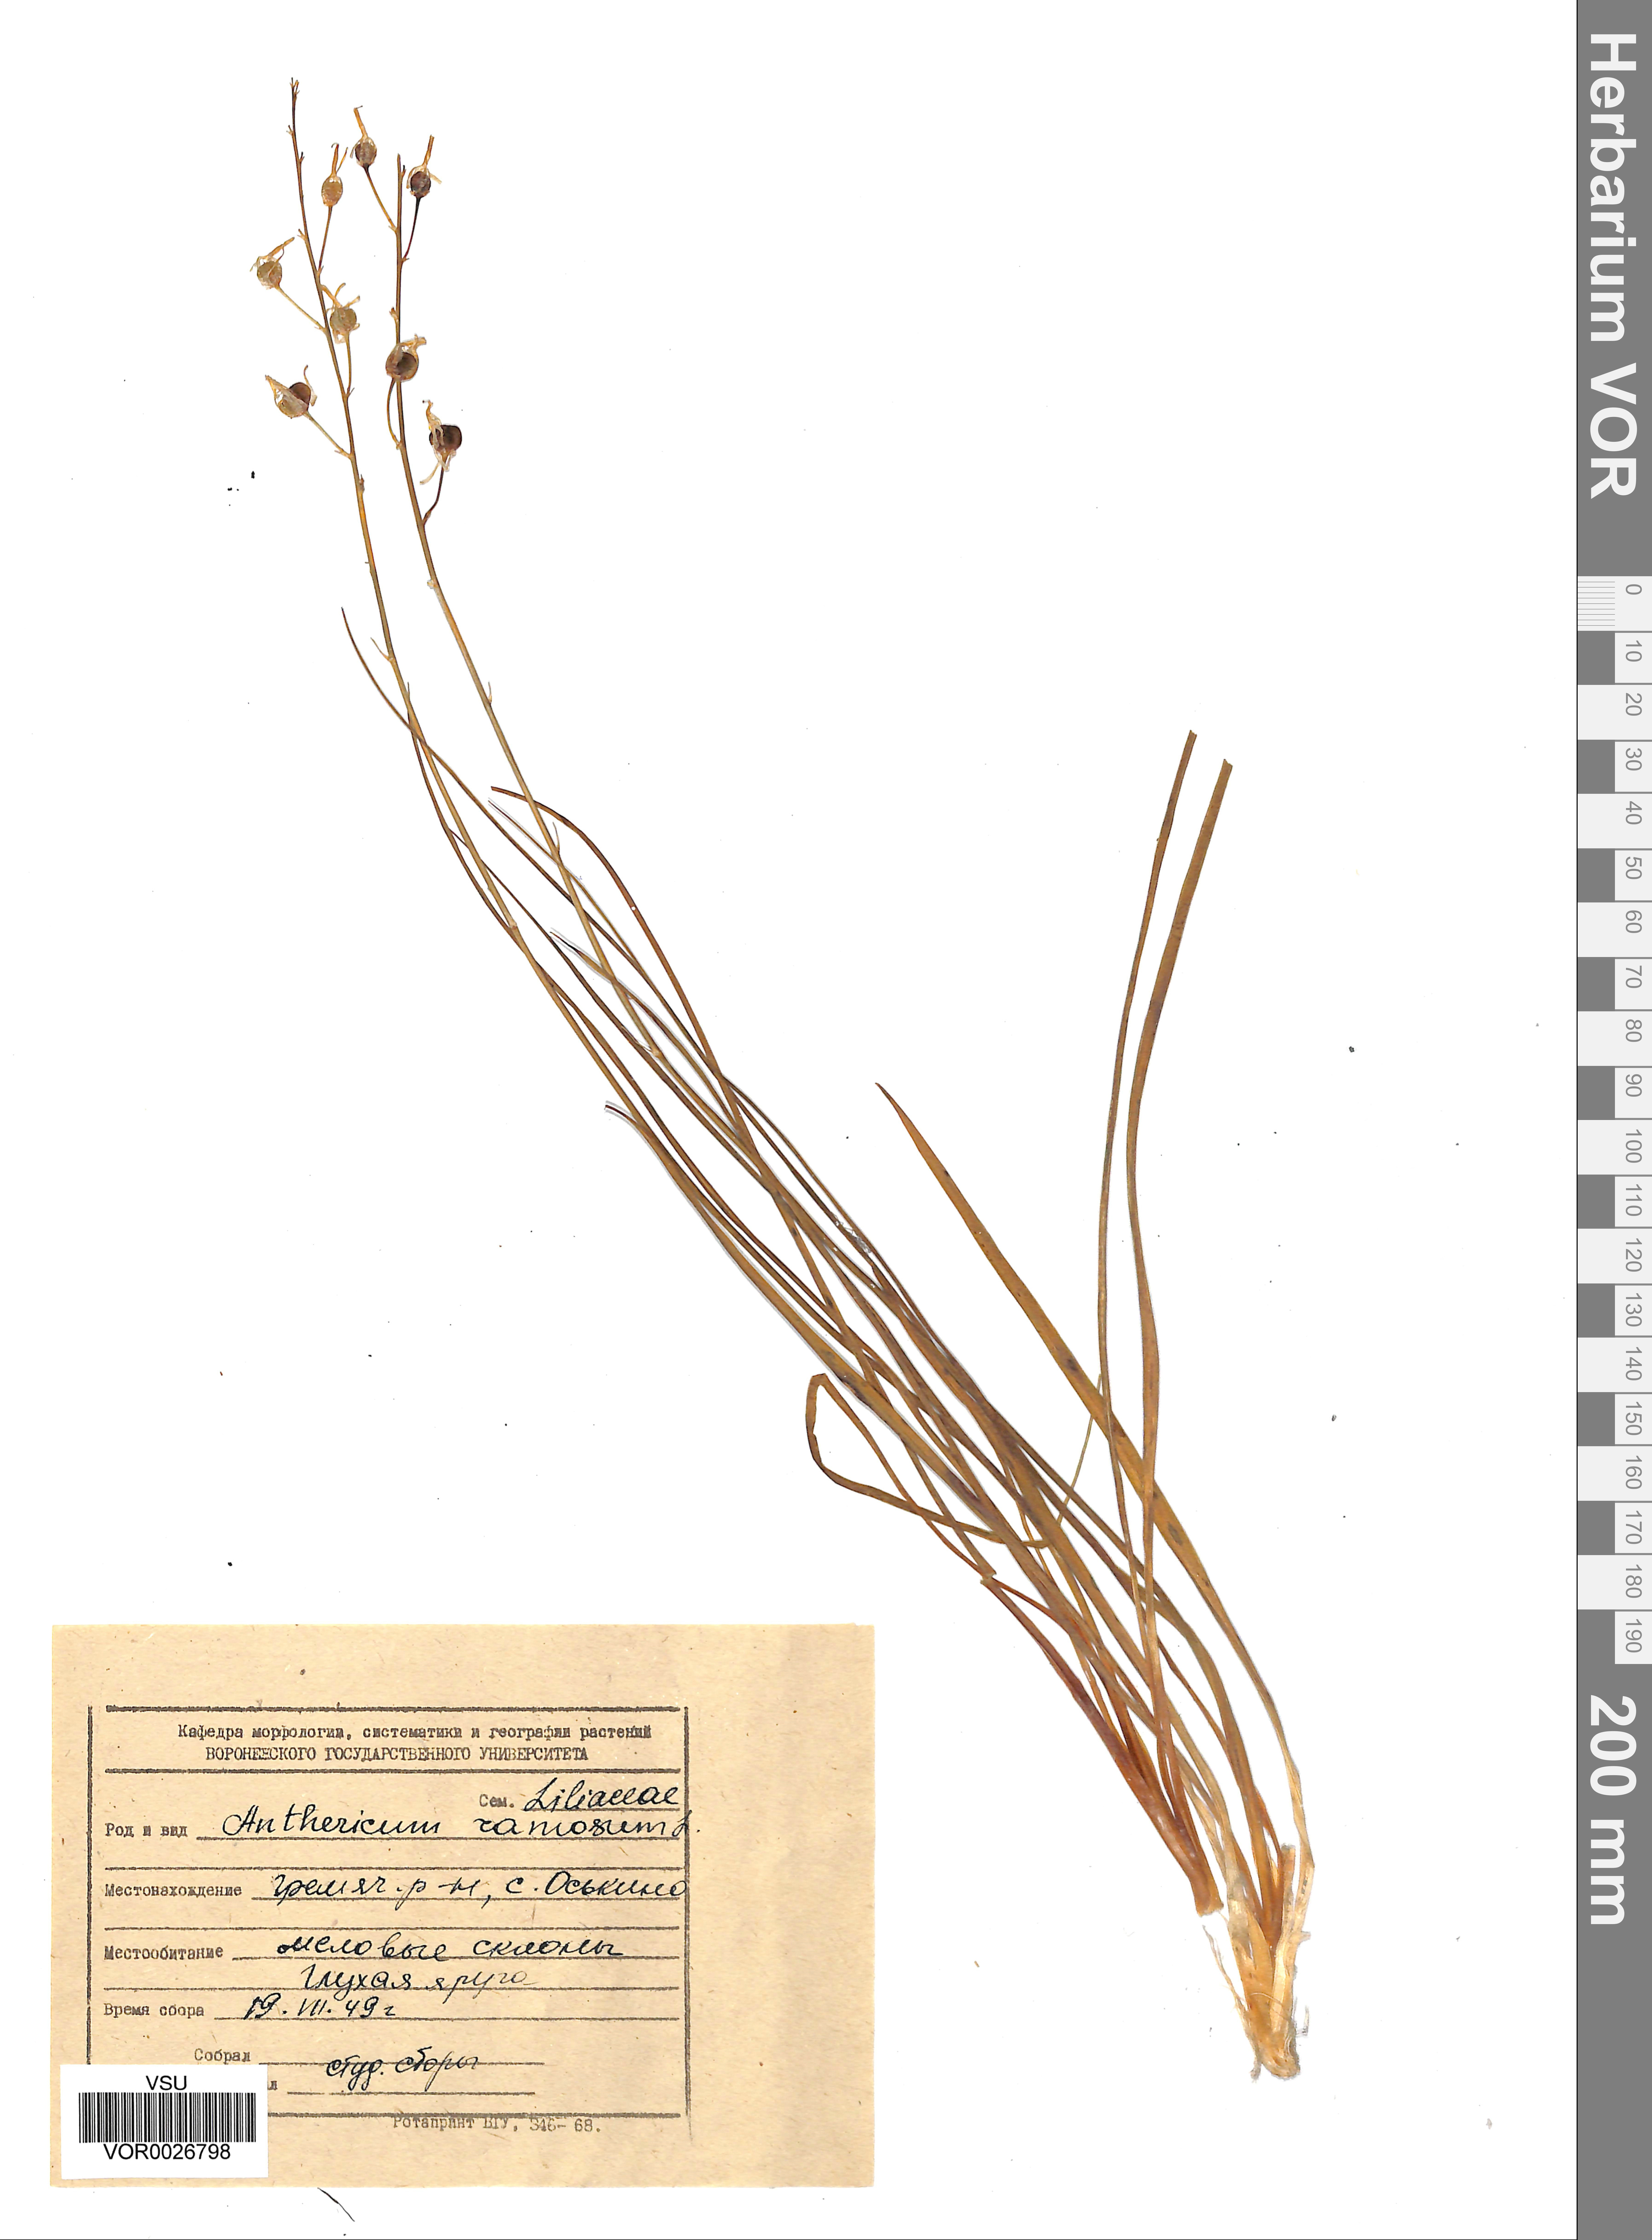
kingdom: Plantae
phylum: Tracheophyta
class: Liliopsida
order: Asparagales
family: Asparagaceae
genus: Anthericum
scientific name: Anthericum ramosum
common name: Branched st. bernard's-lily
